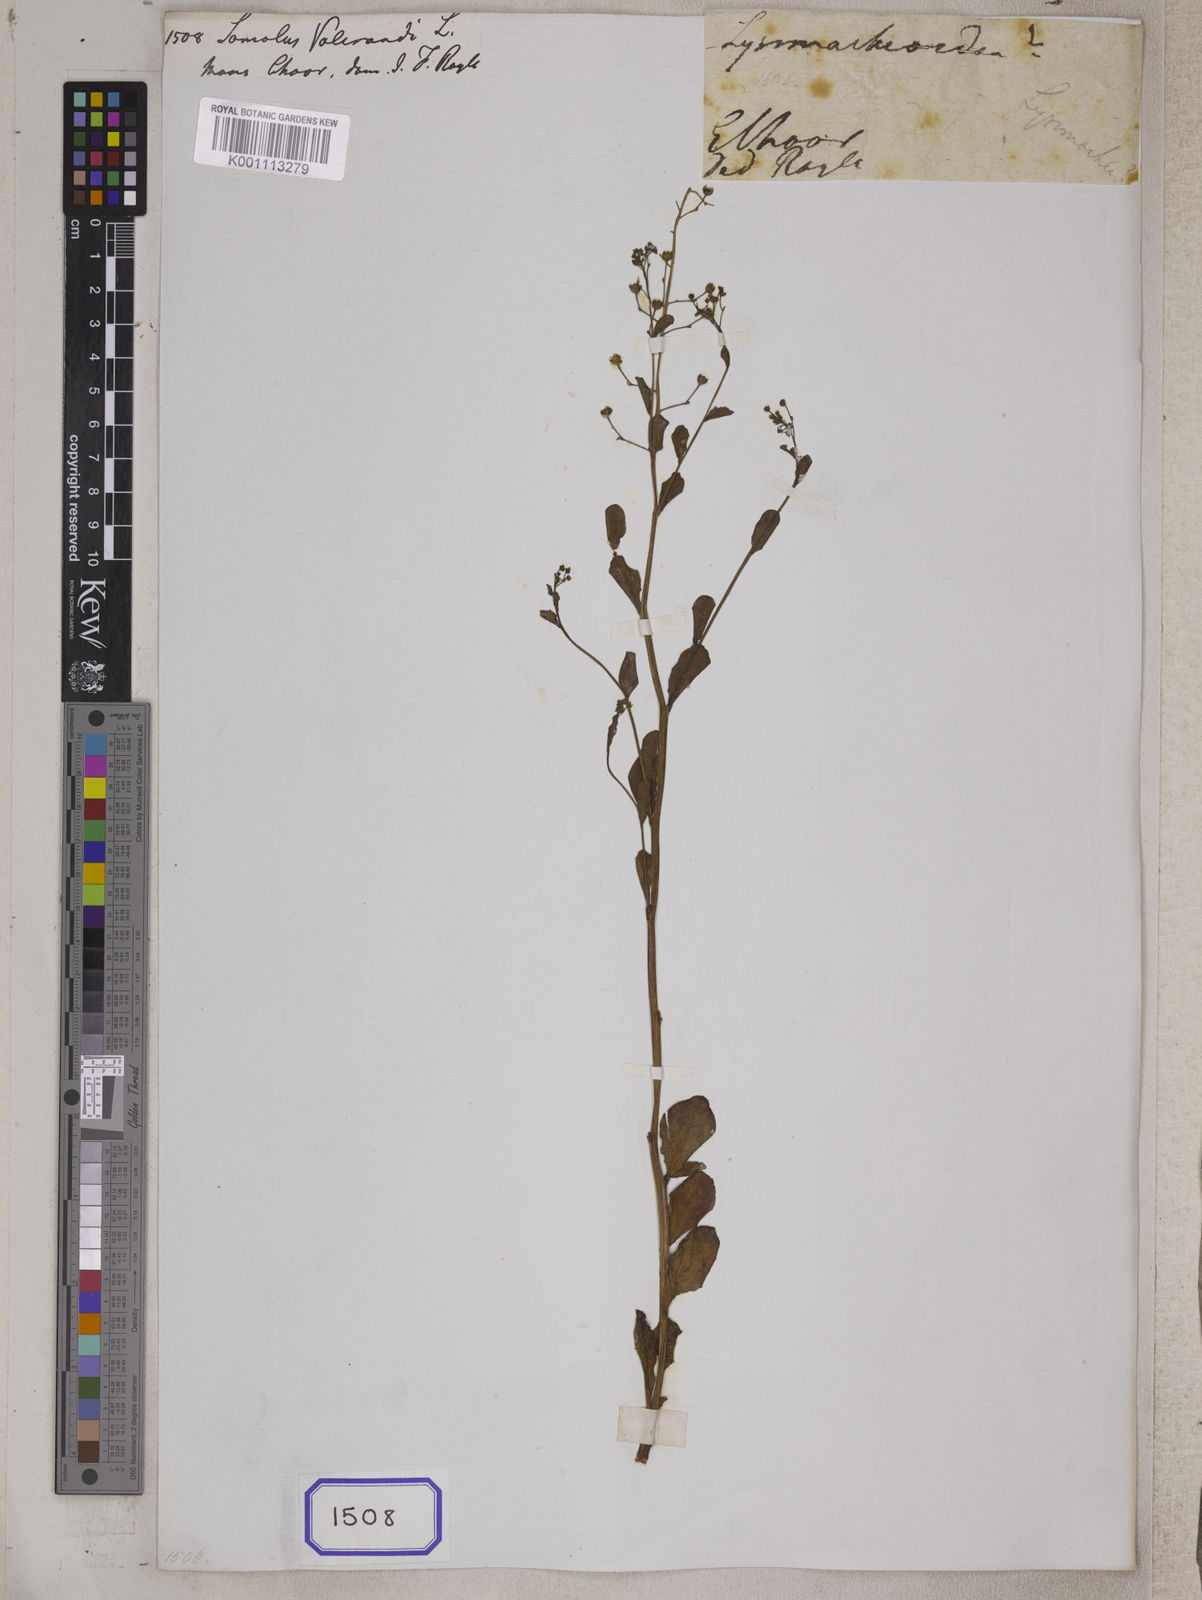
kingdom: Plantae
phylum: Tracheophyta
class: Magnoliopsida
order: Ericales
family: Primulaceae
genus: Samolus
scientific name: Samolus valerandi
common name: Brookweed
